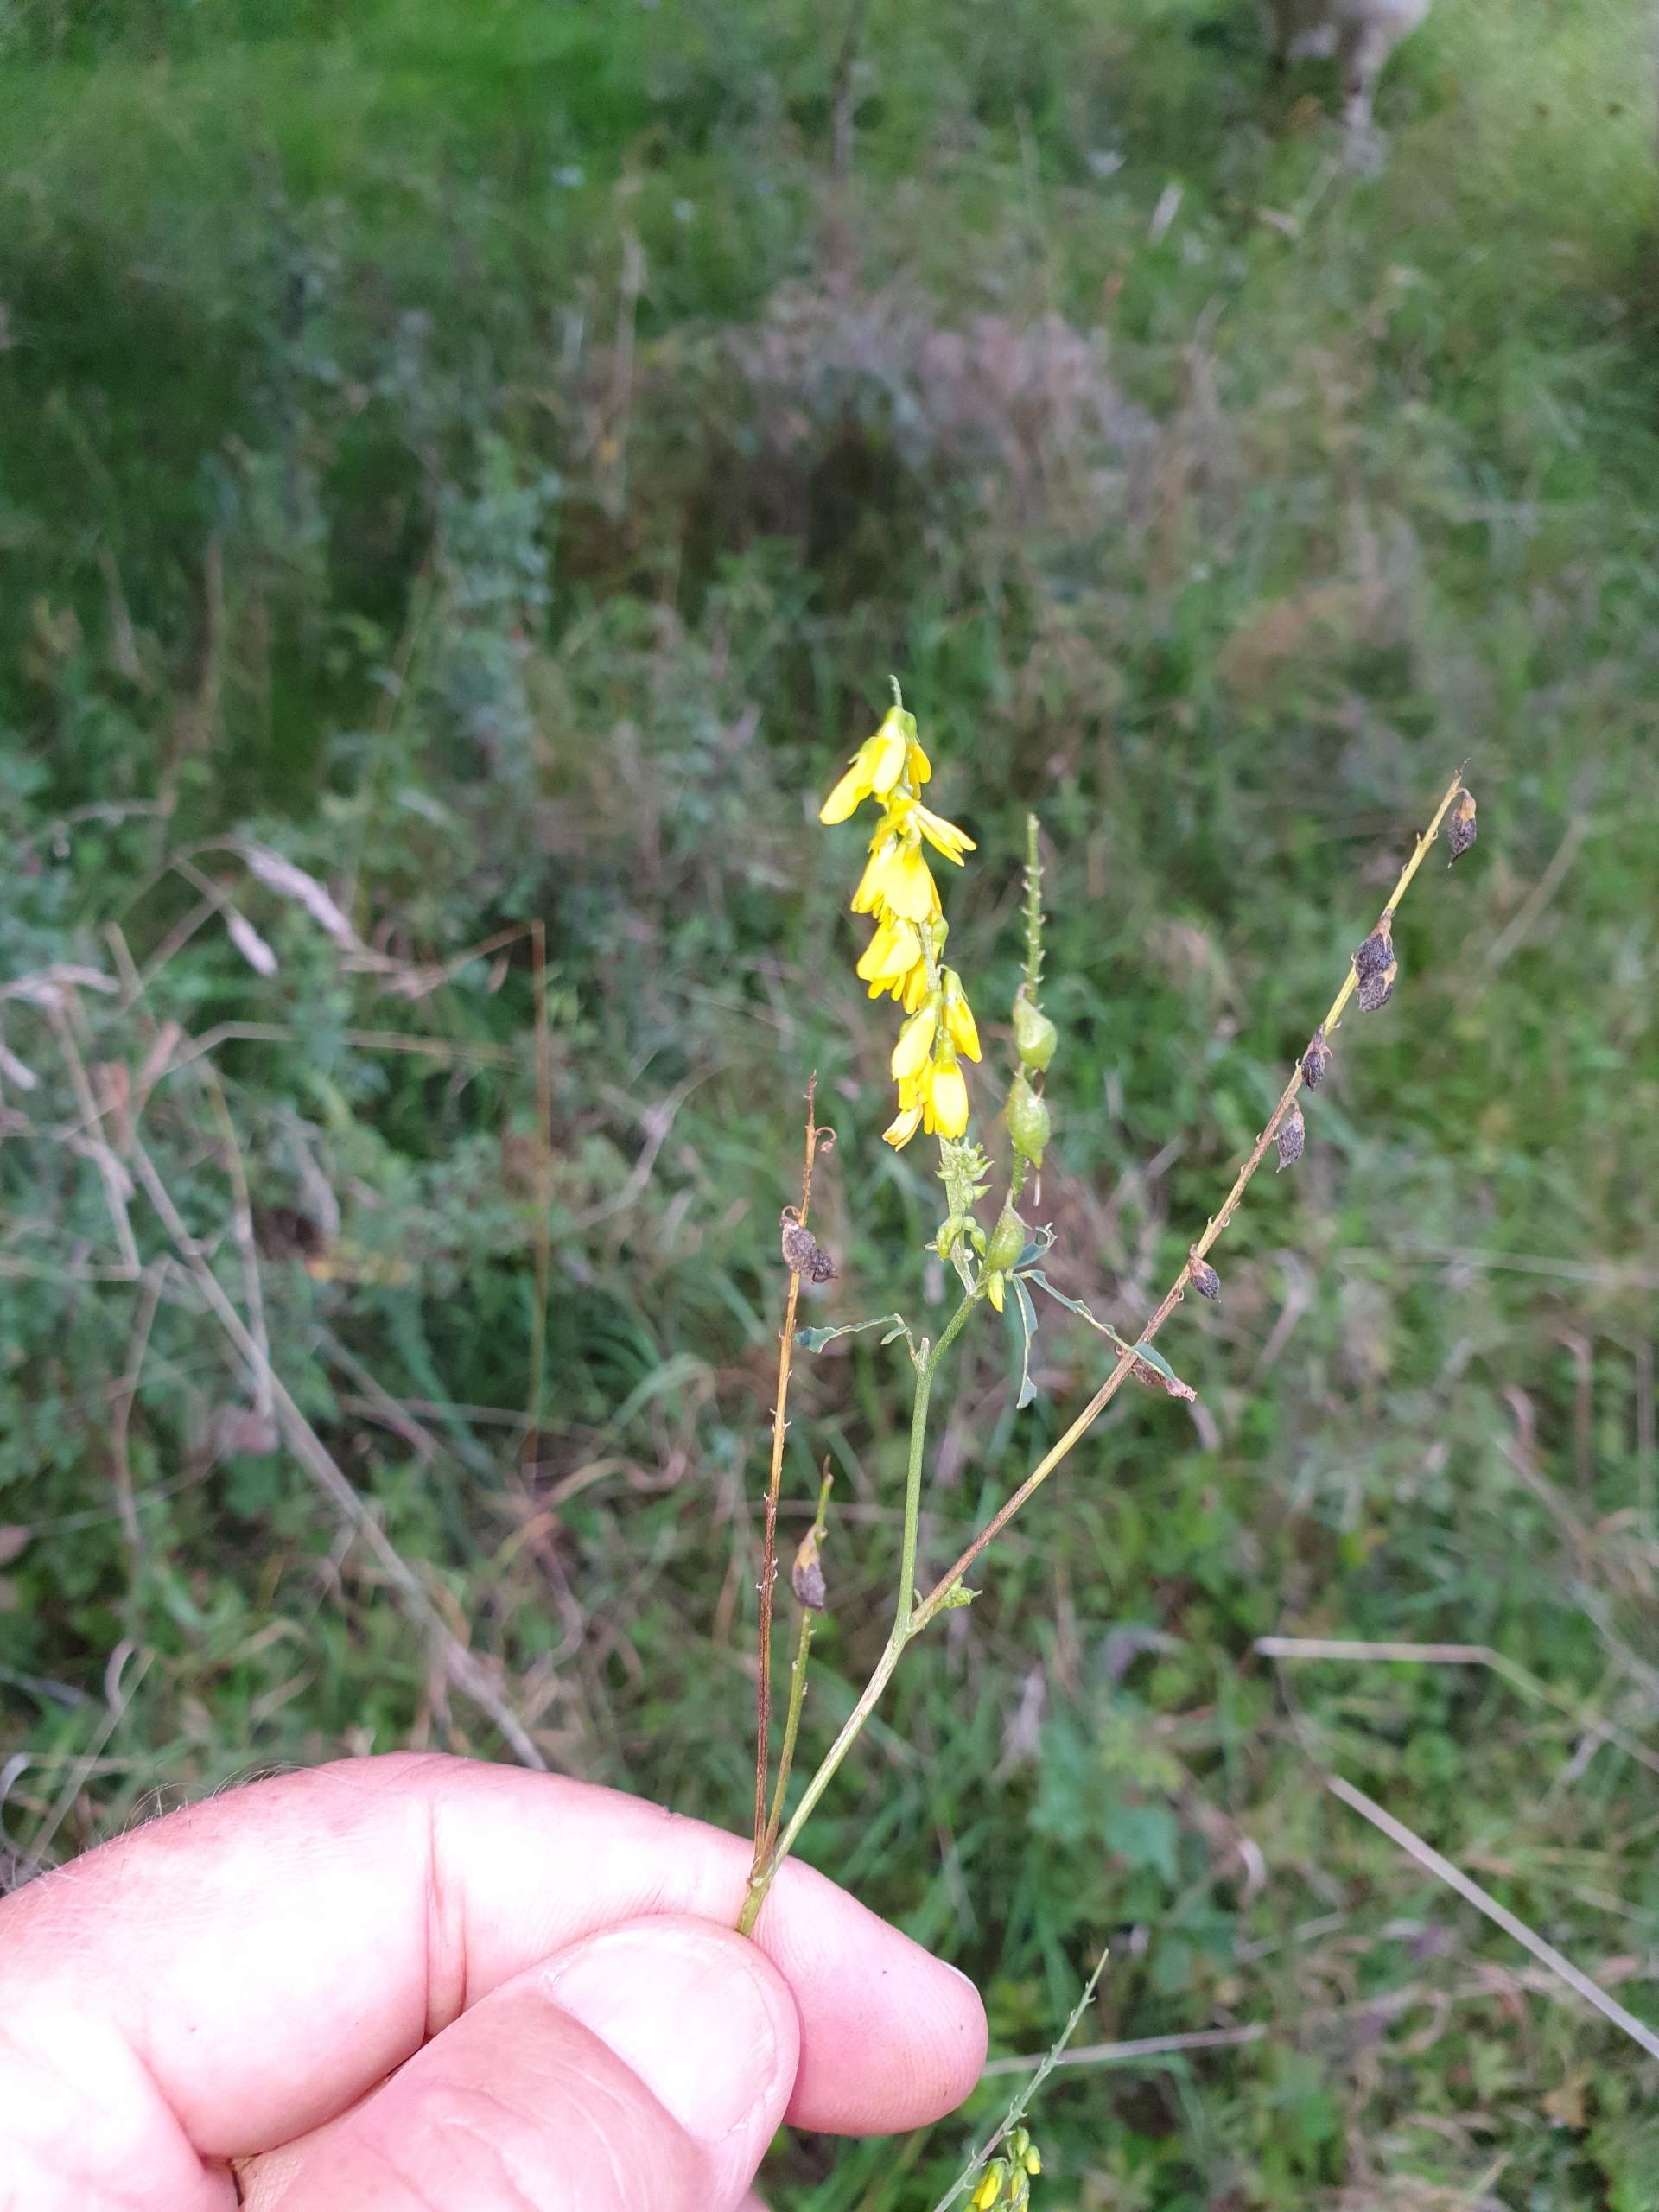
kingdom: Plantae
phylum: Tracheophyta
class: Magnoliopsida
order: Fabales
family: Fabaceae
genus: Melilotus
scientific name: Melilotus altissimus
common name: Høj stenkløver
